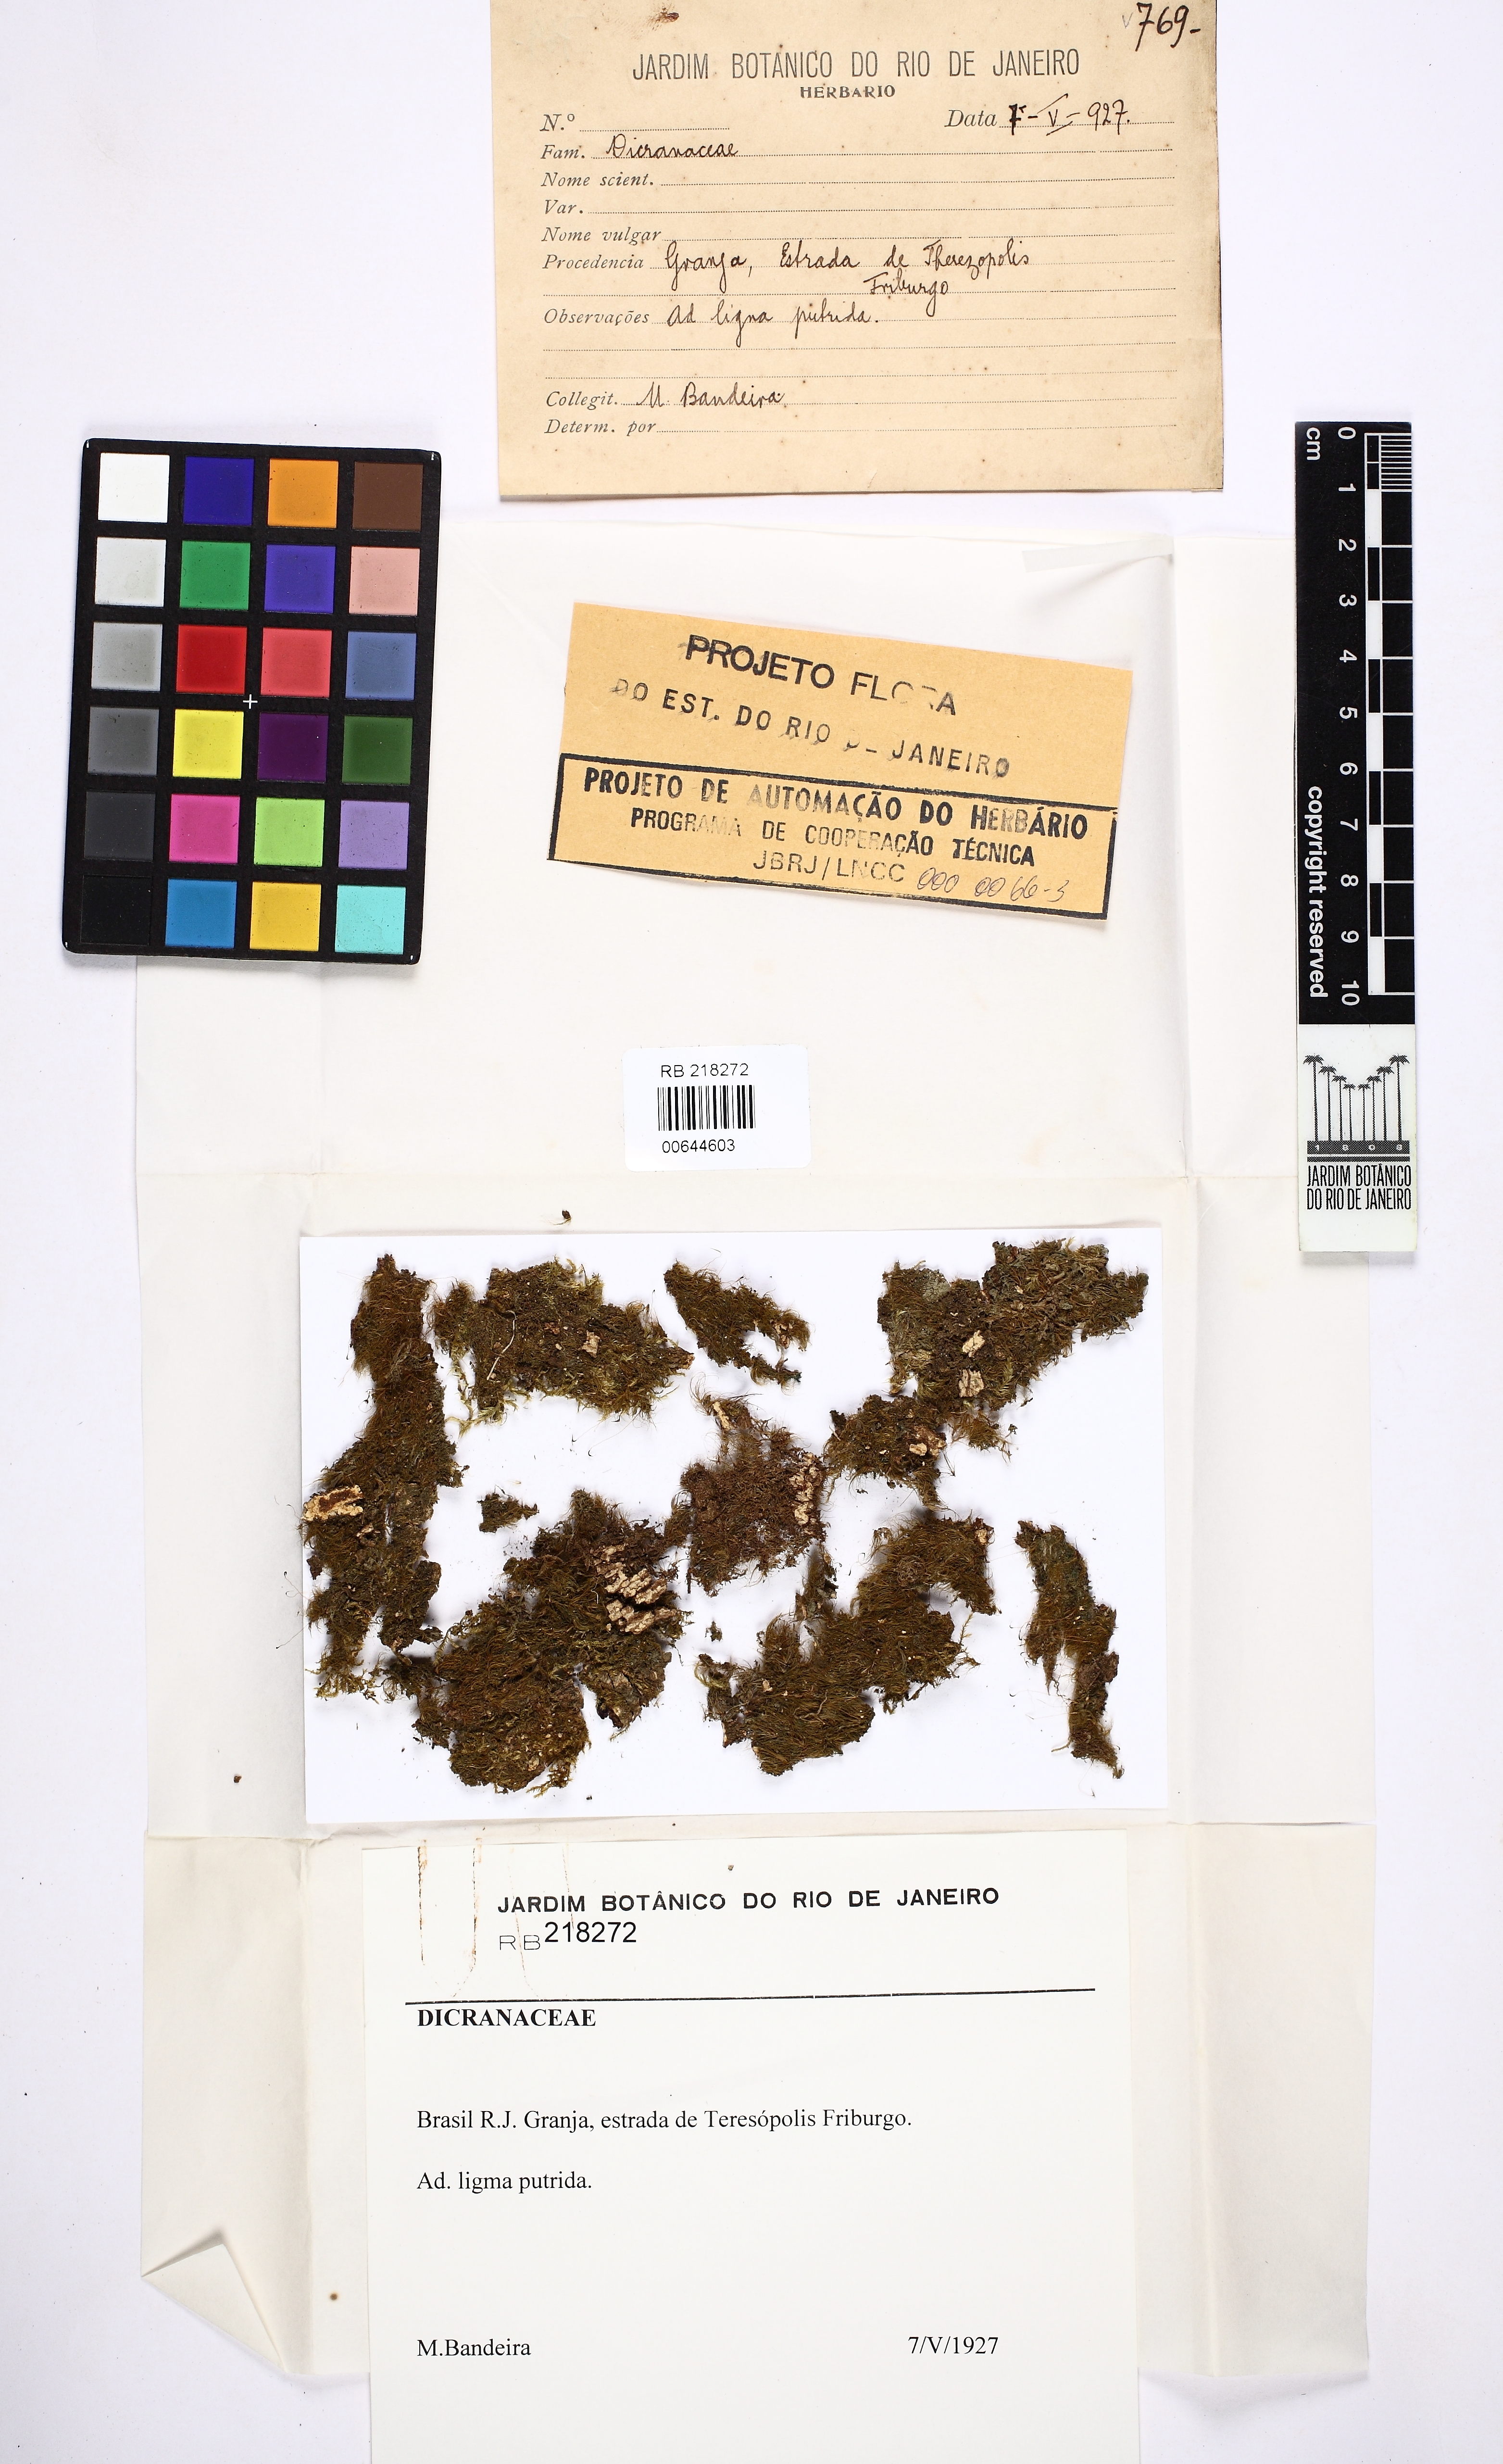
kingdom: Plantae
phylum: Bryophyta
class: Bryopsida
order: Dicranales
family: Dicranaceae
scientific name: Dicranaceae
